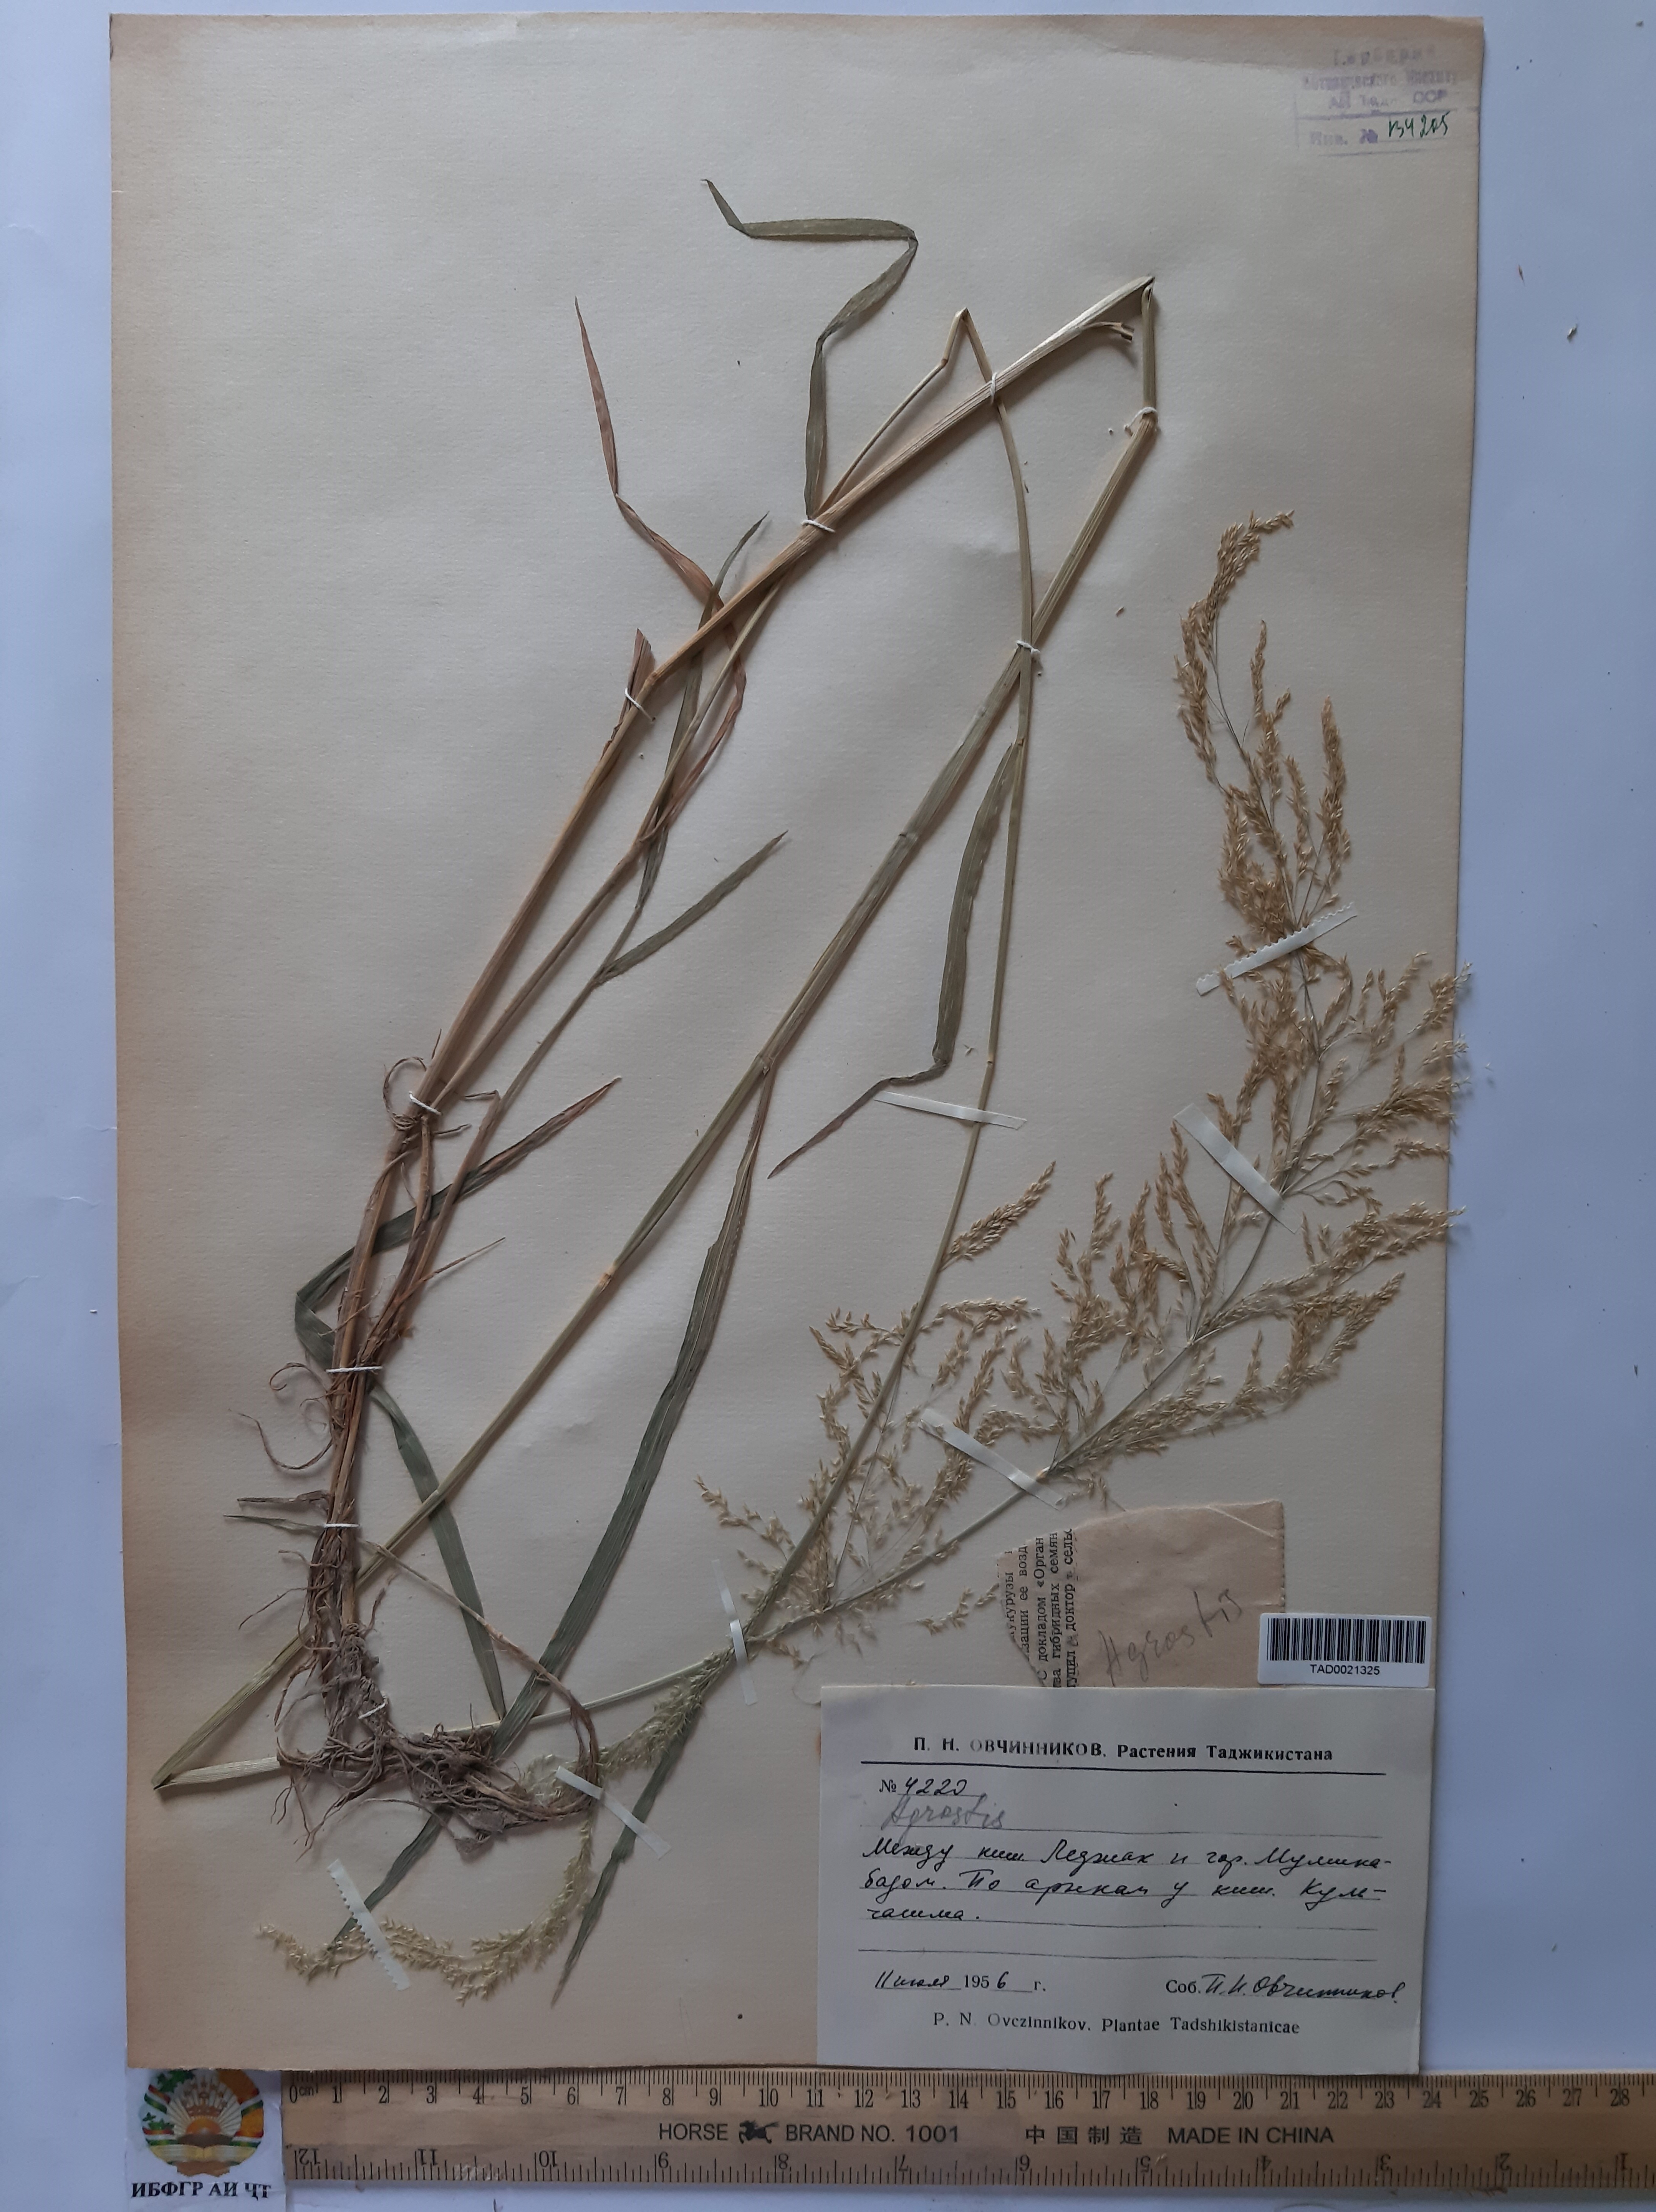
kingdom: Plantae
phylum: Tracheophyta
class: Liliopsida
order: Poales
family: Poaceae
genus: Poa
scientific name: Poa nemoralis
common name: Wood bluegrass
